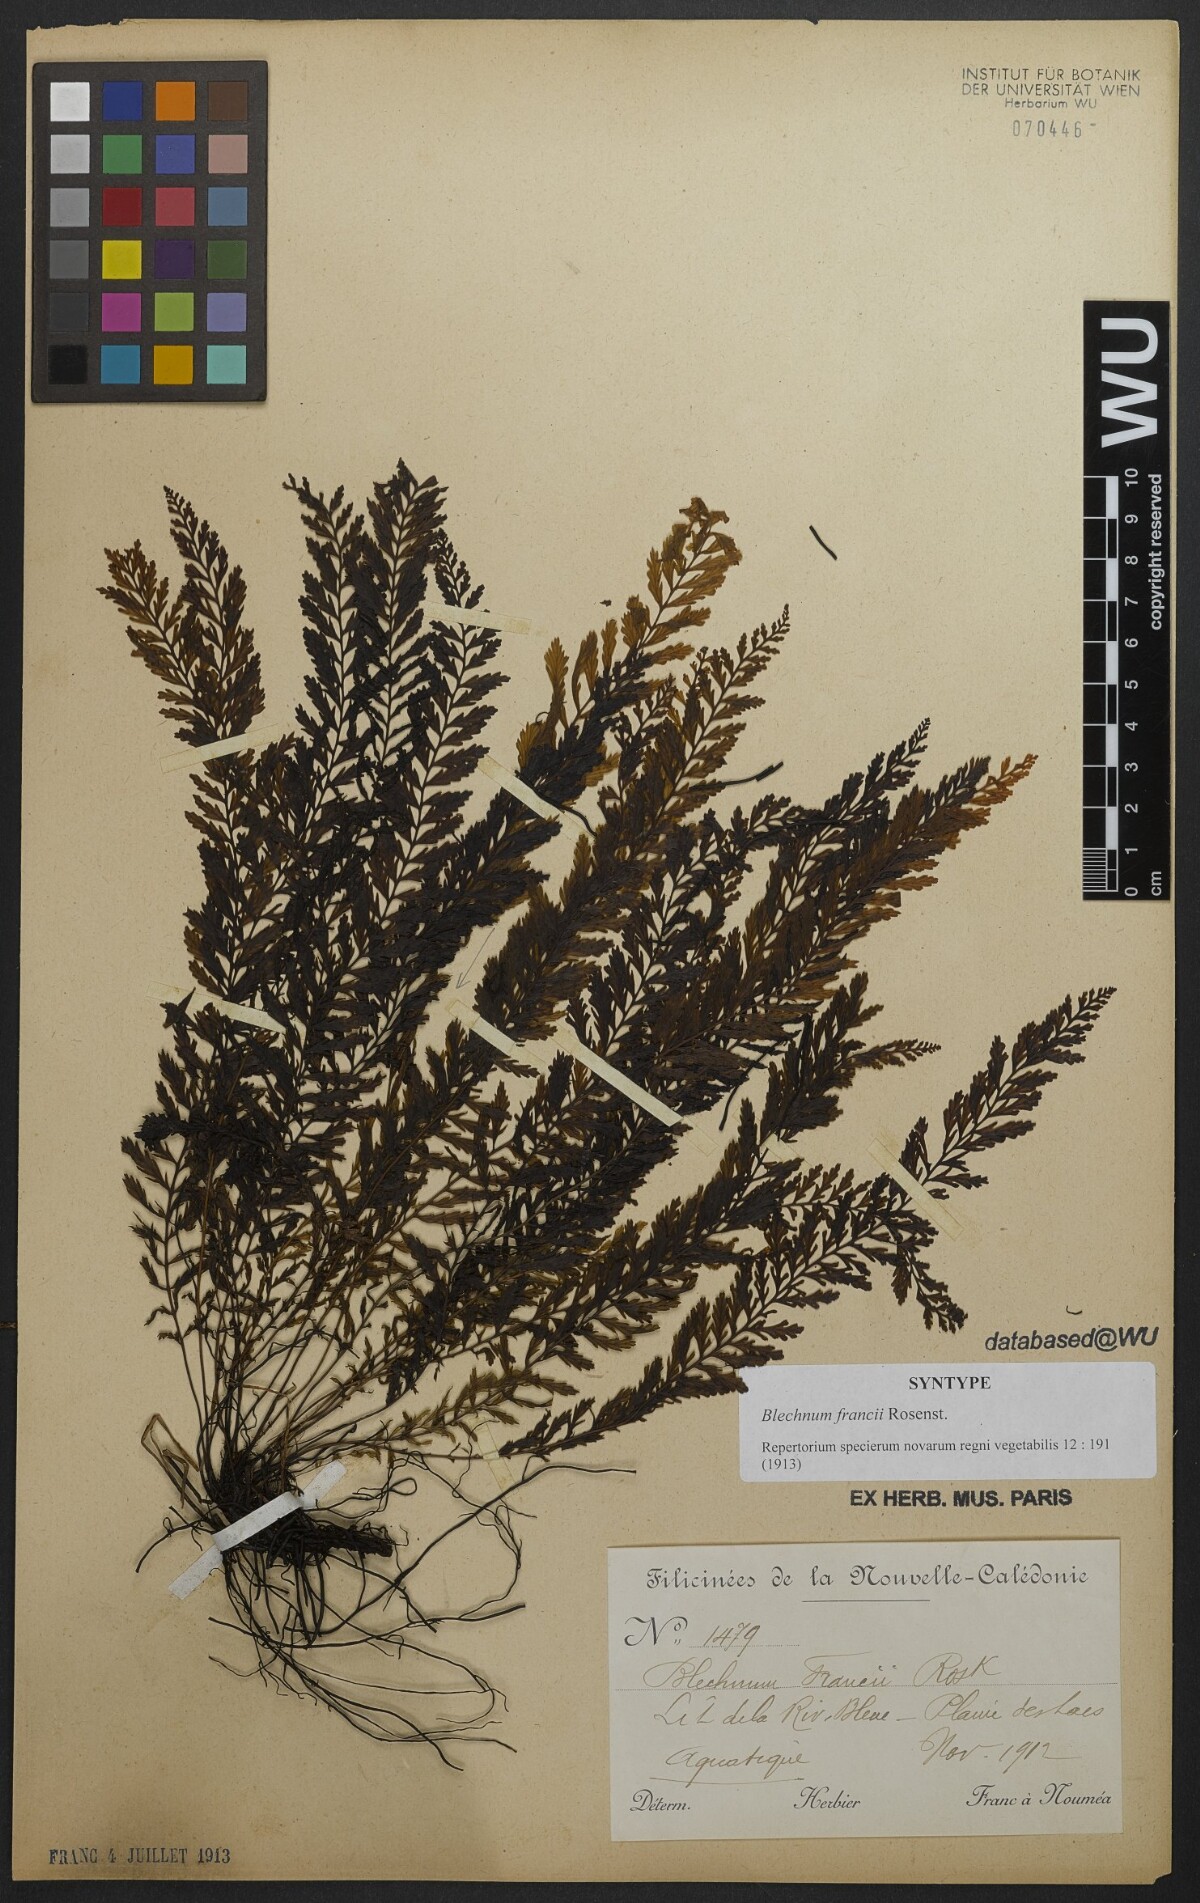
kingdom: Plantae
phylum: Tracheophyta
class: Polypodiopsida
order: Polypodiales
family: Blechnaceae
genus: Oceaniopteris
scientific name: Oceaniopteris francii
